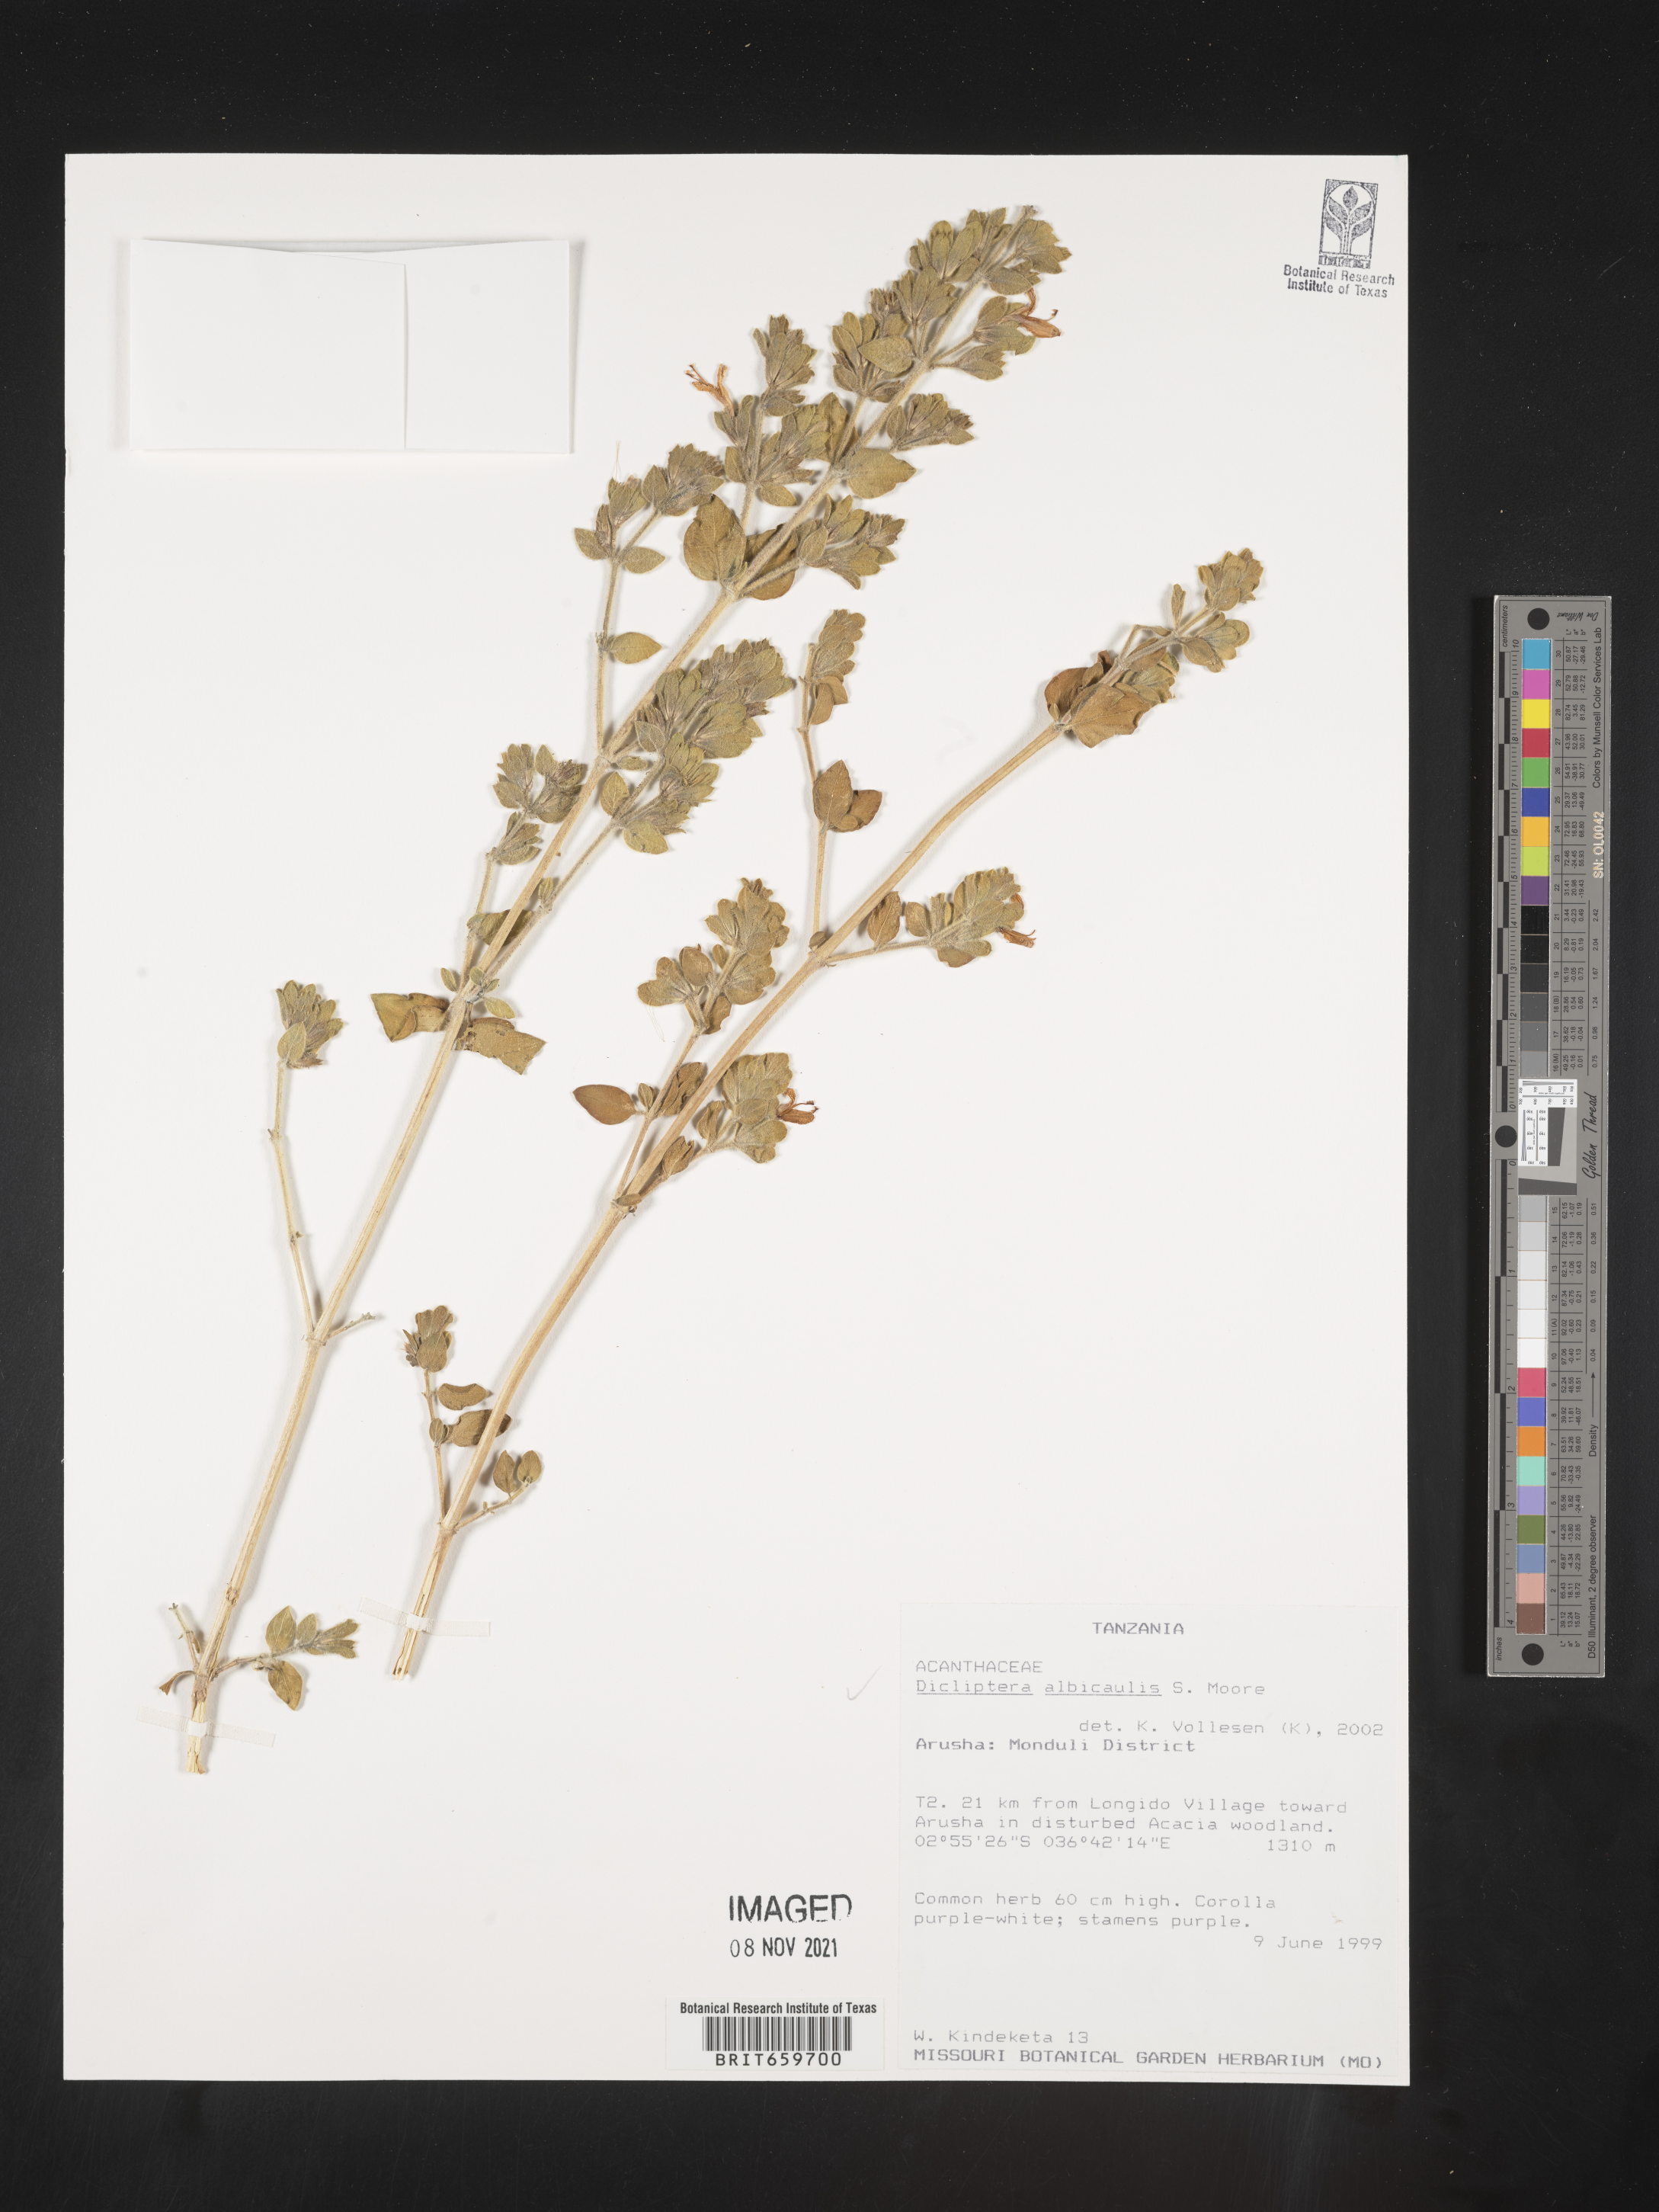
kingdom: Plantae
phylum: Tracheophyta
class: Magnoliopsida
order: Lamiales
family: Acanthaceae
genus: Dicliptera
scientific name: Dicliptera albicaulis
